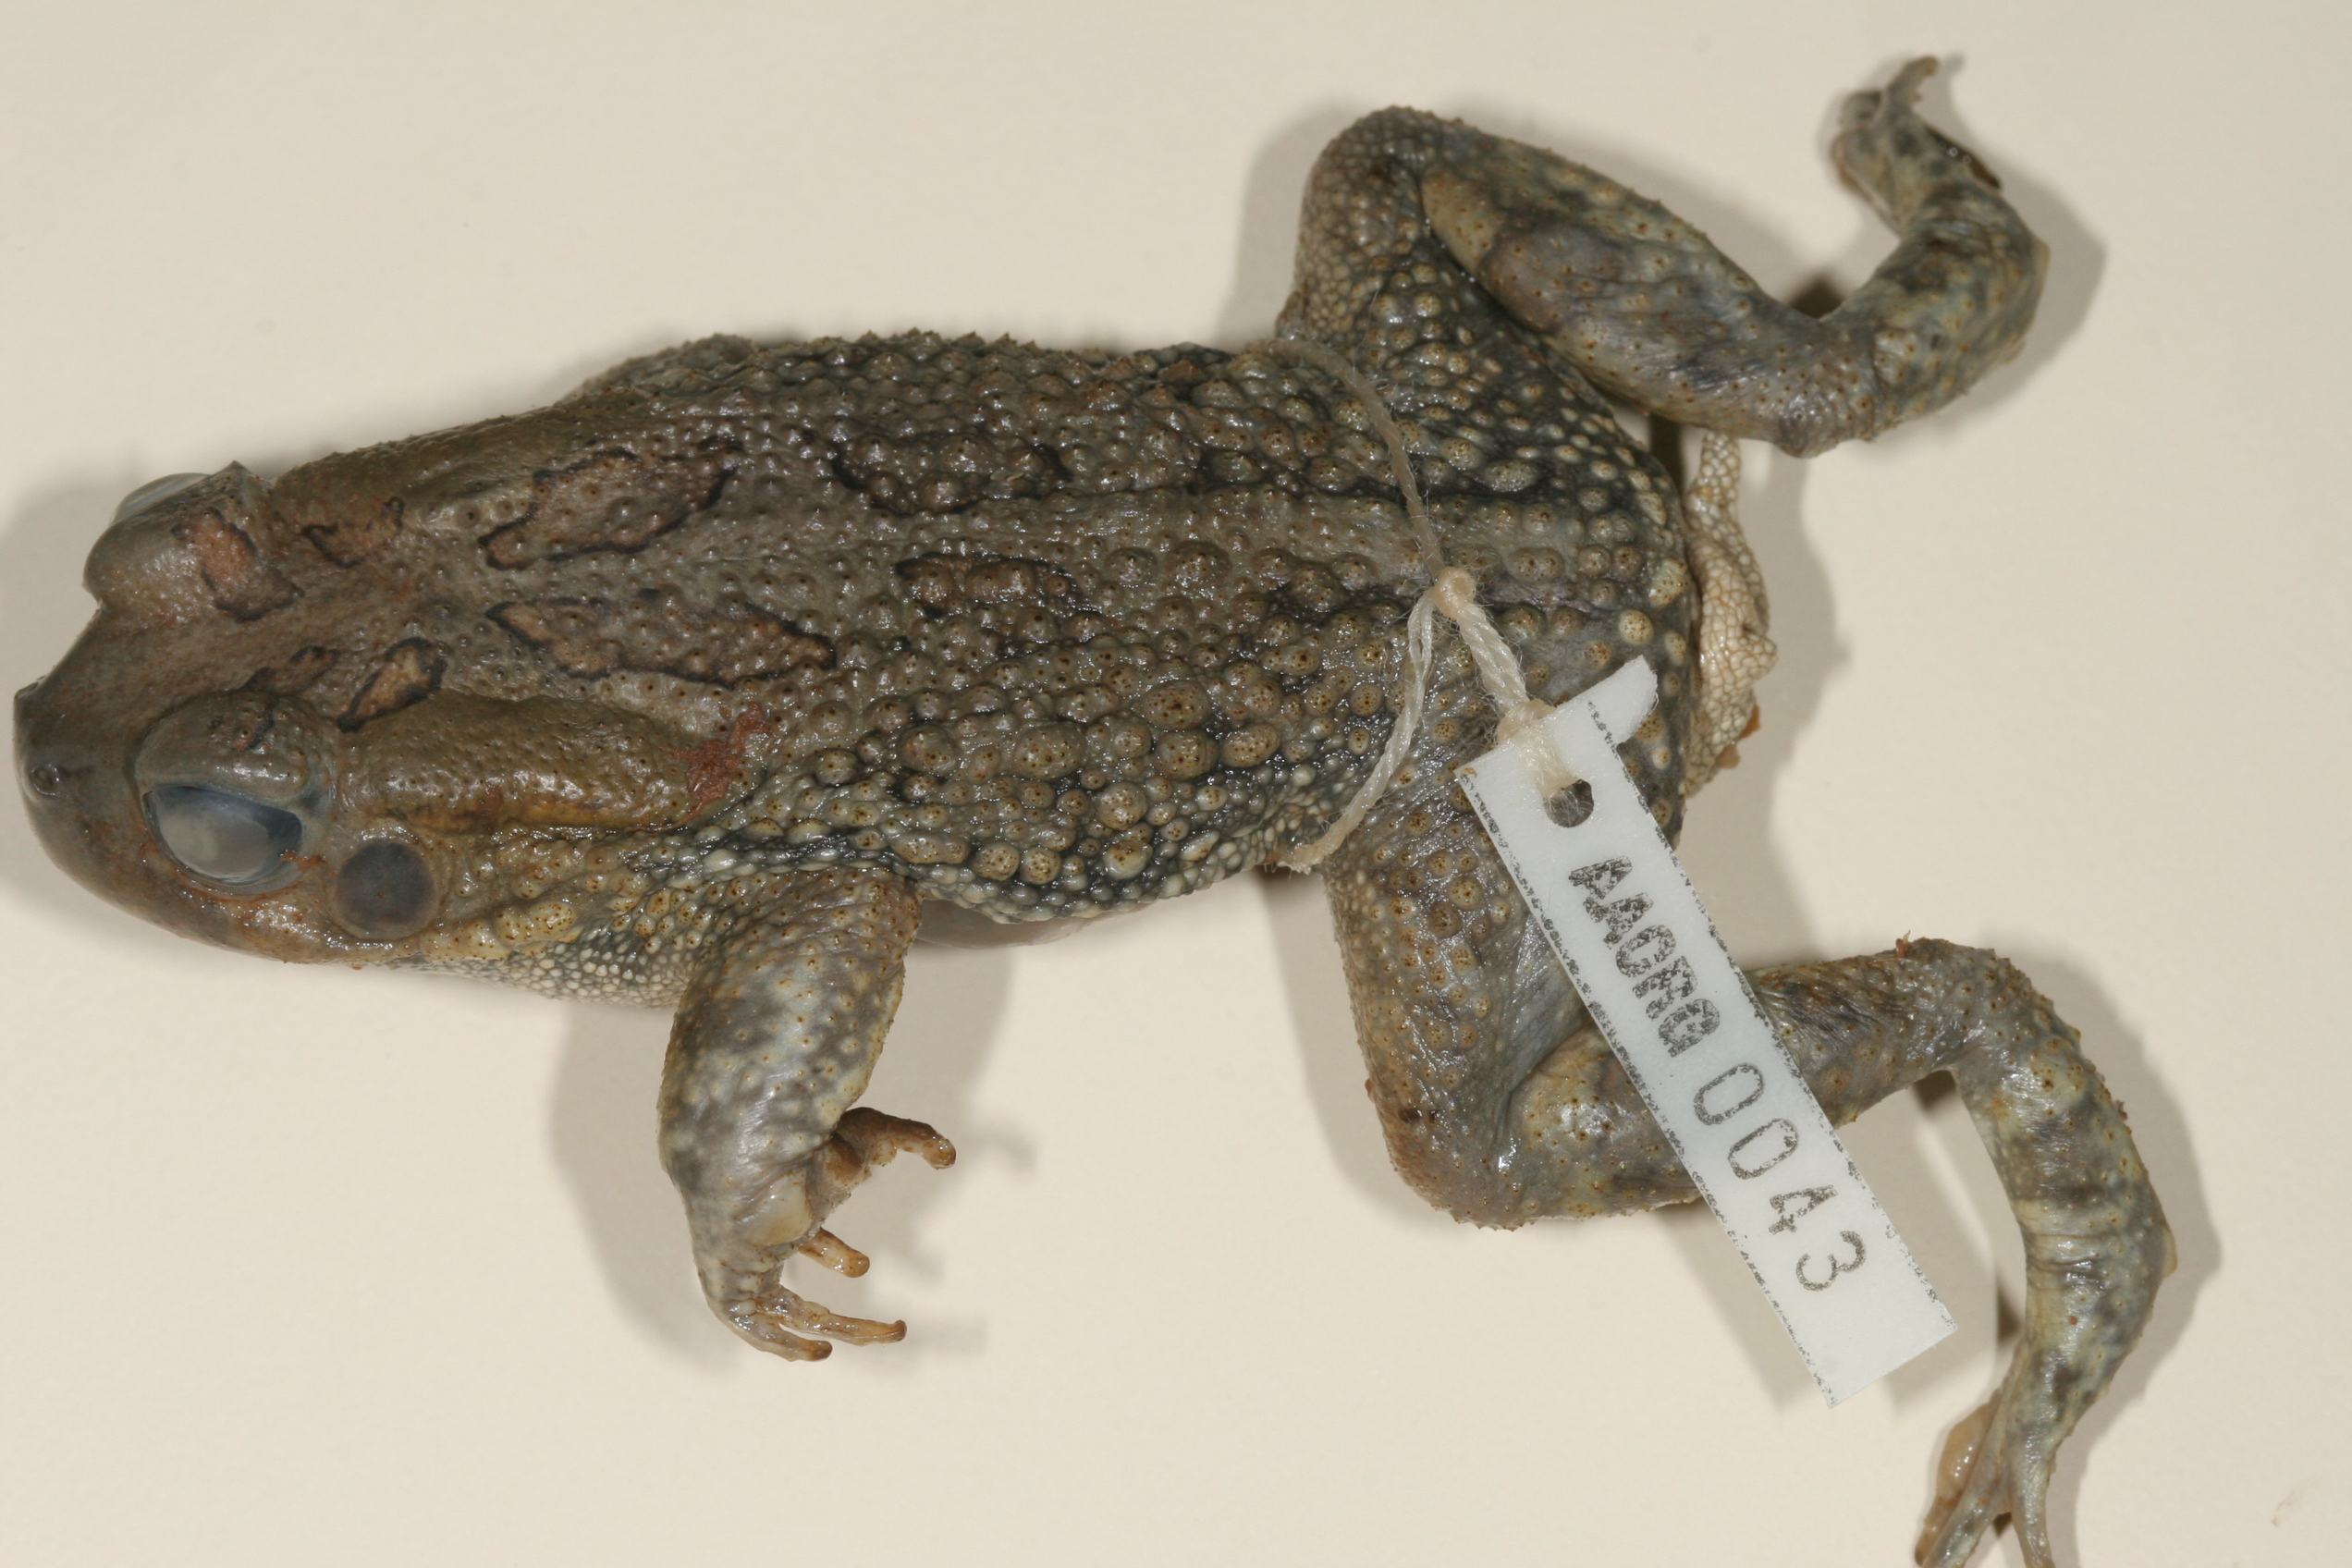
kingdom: Animalia
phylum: Chordata
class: Amphibia
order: Anura
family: Bufonidae
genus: Sclerophrys
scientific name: Sclerophrys garmani
